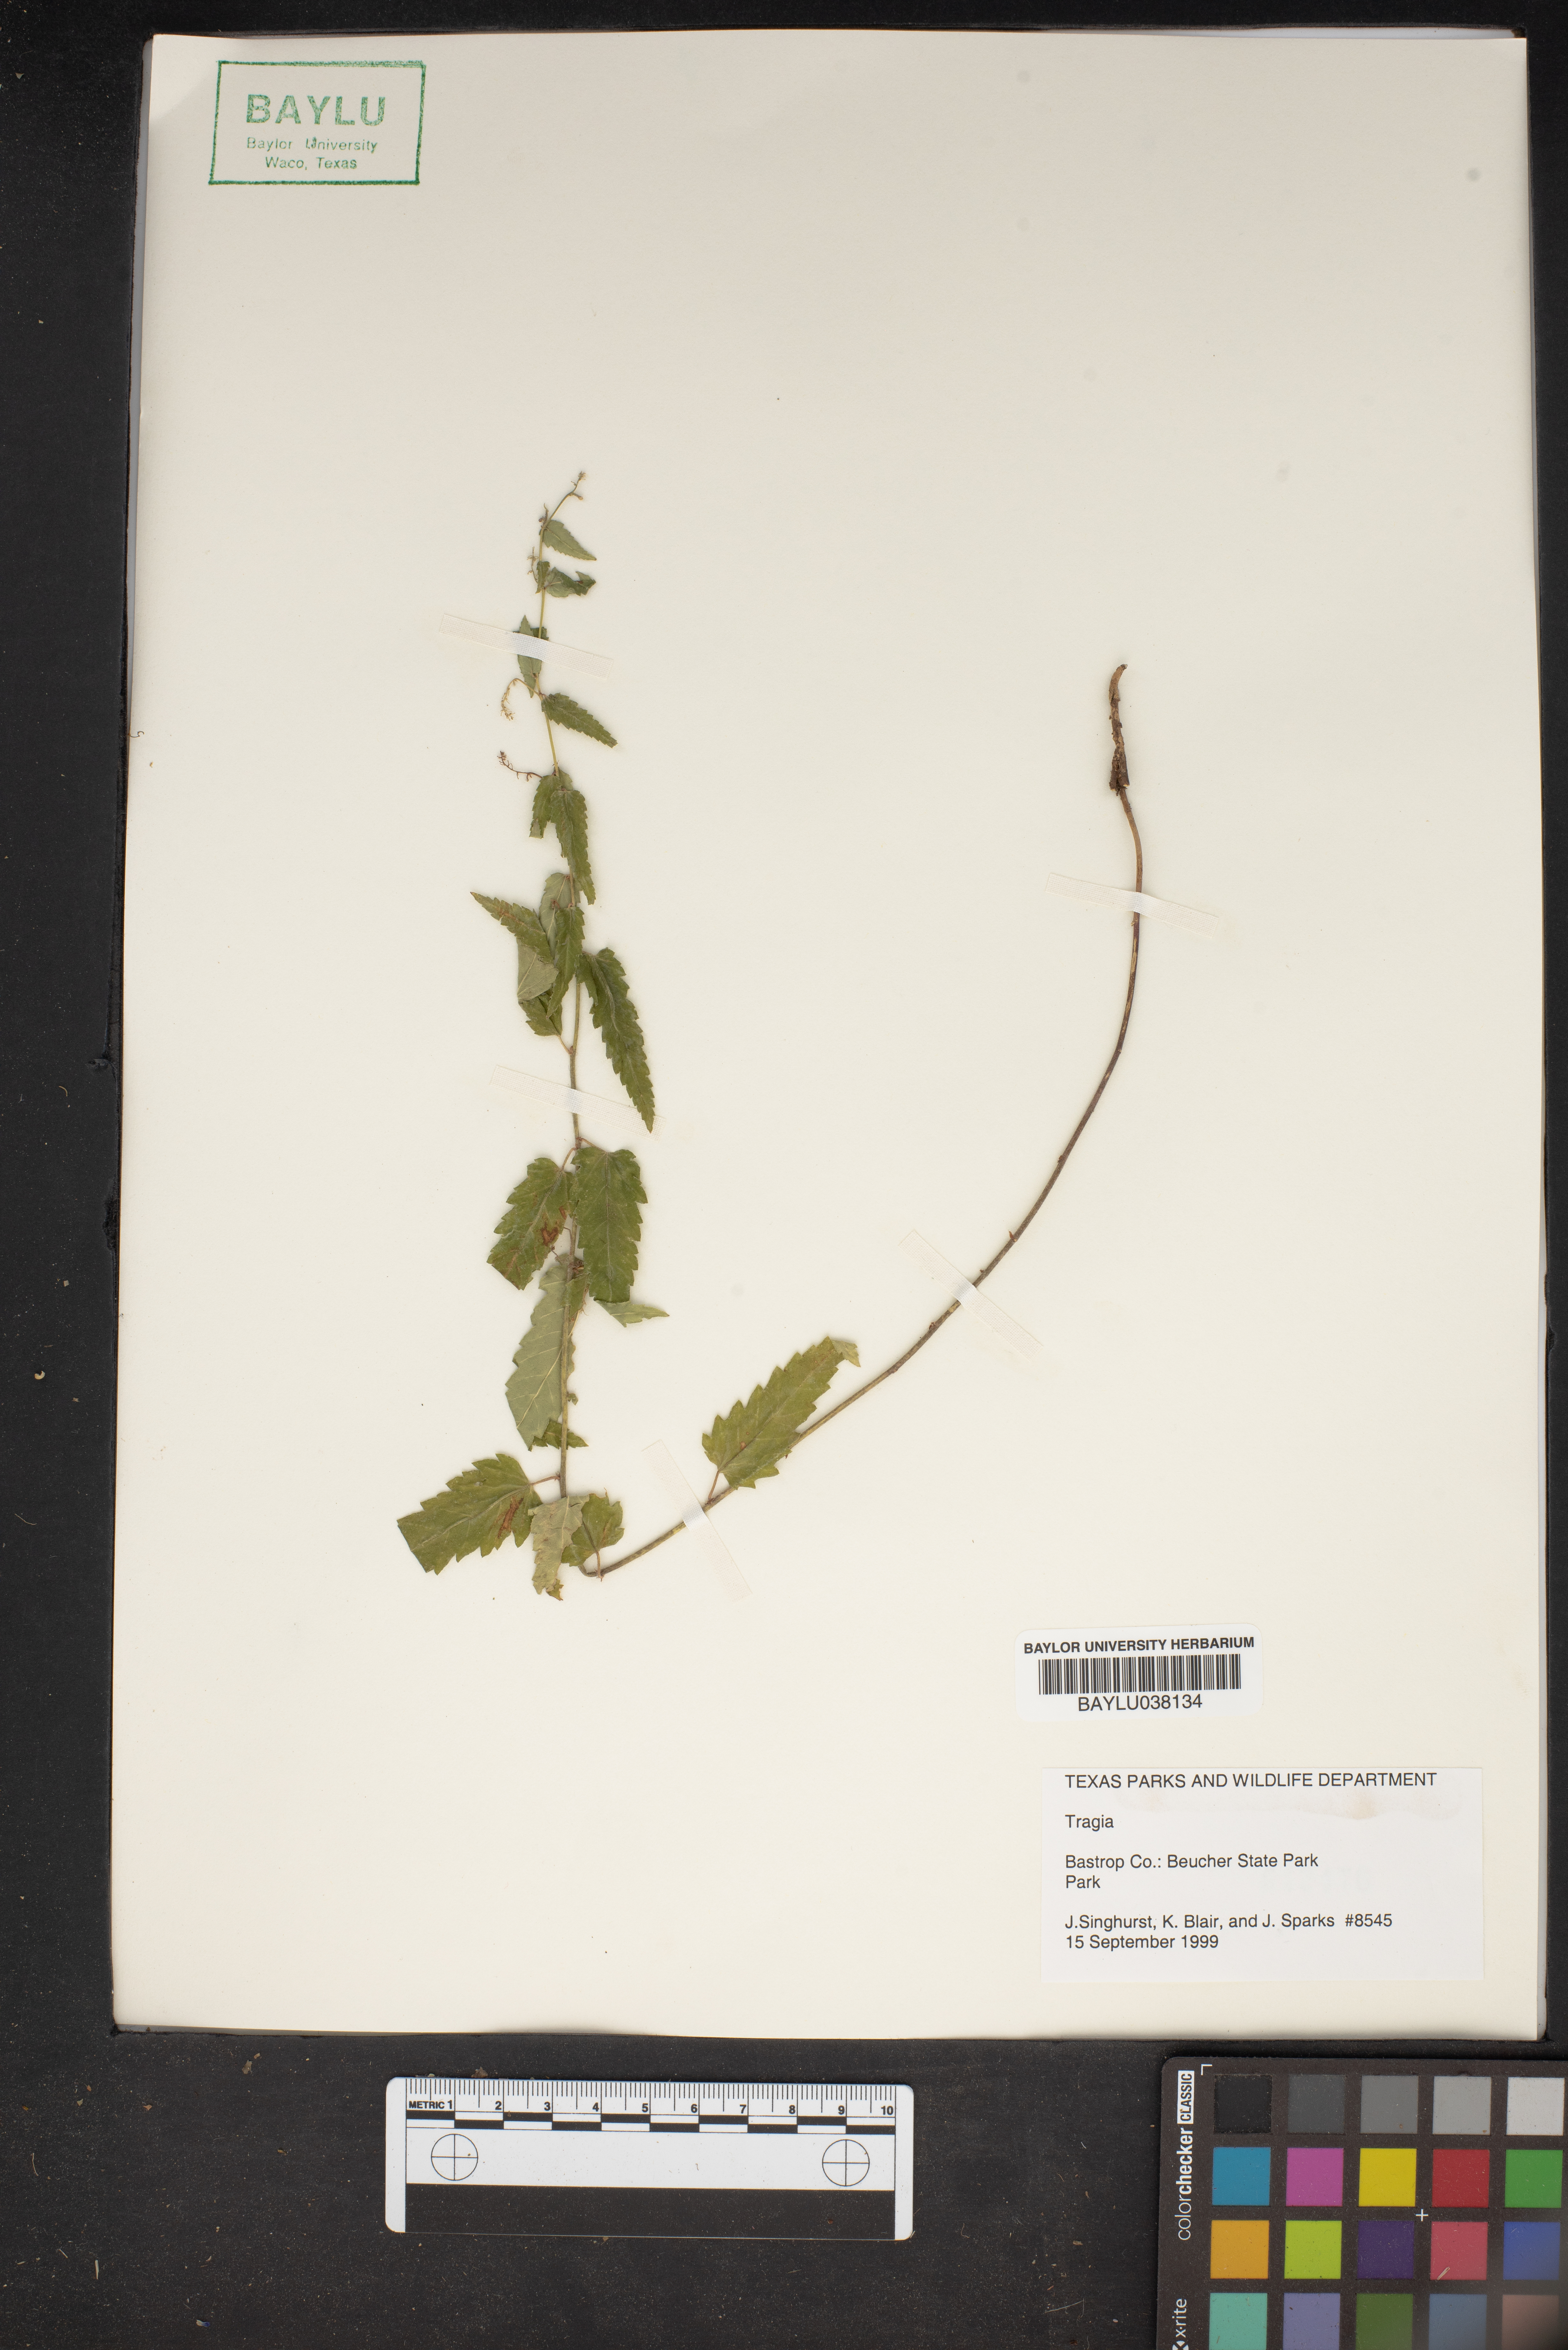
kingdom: Plantae
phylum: Tracheophyta
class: Magnoliopsida
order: Malpighiales
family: Euphorbiaceae
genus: Tragia
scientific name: Tragia
